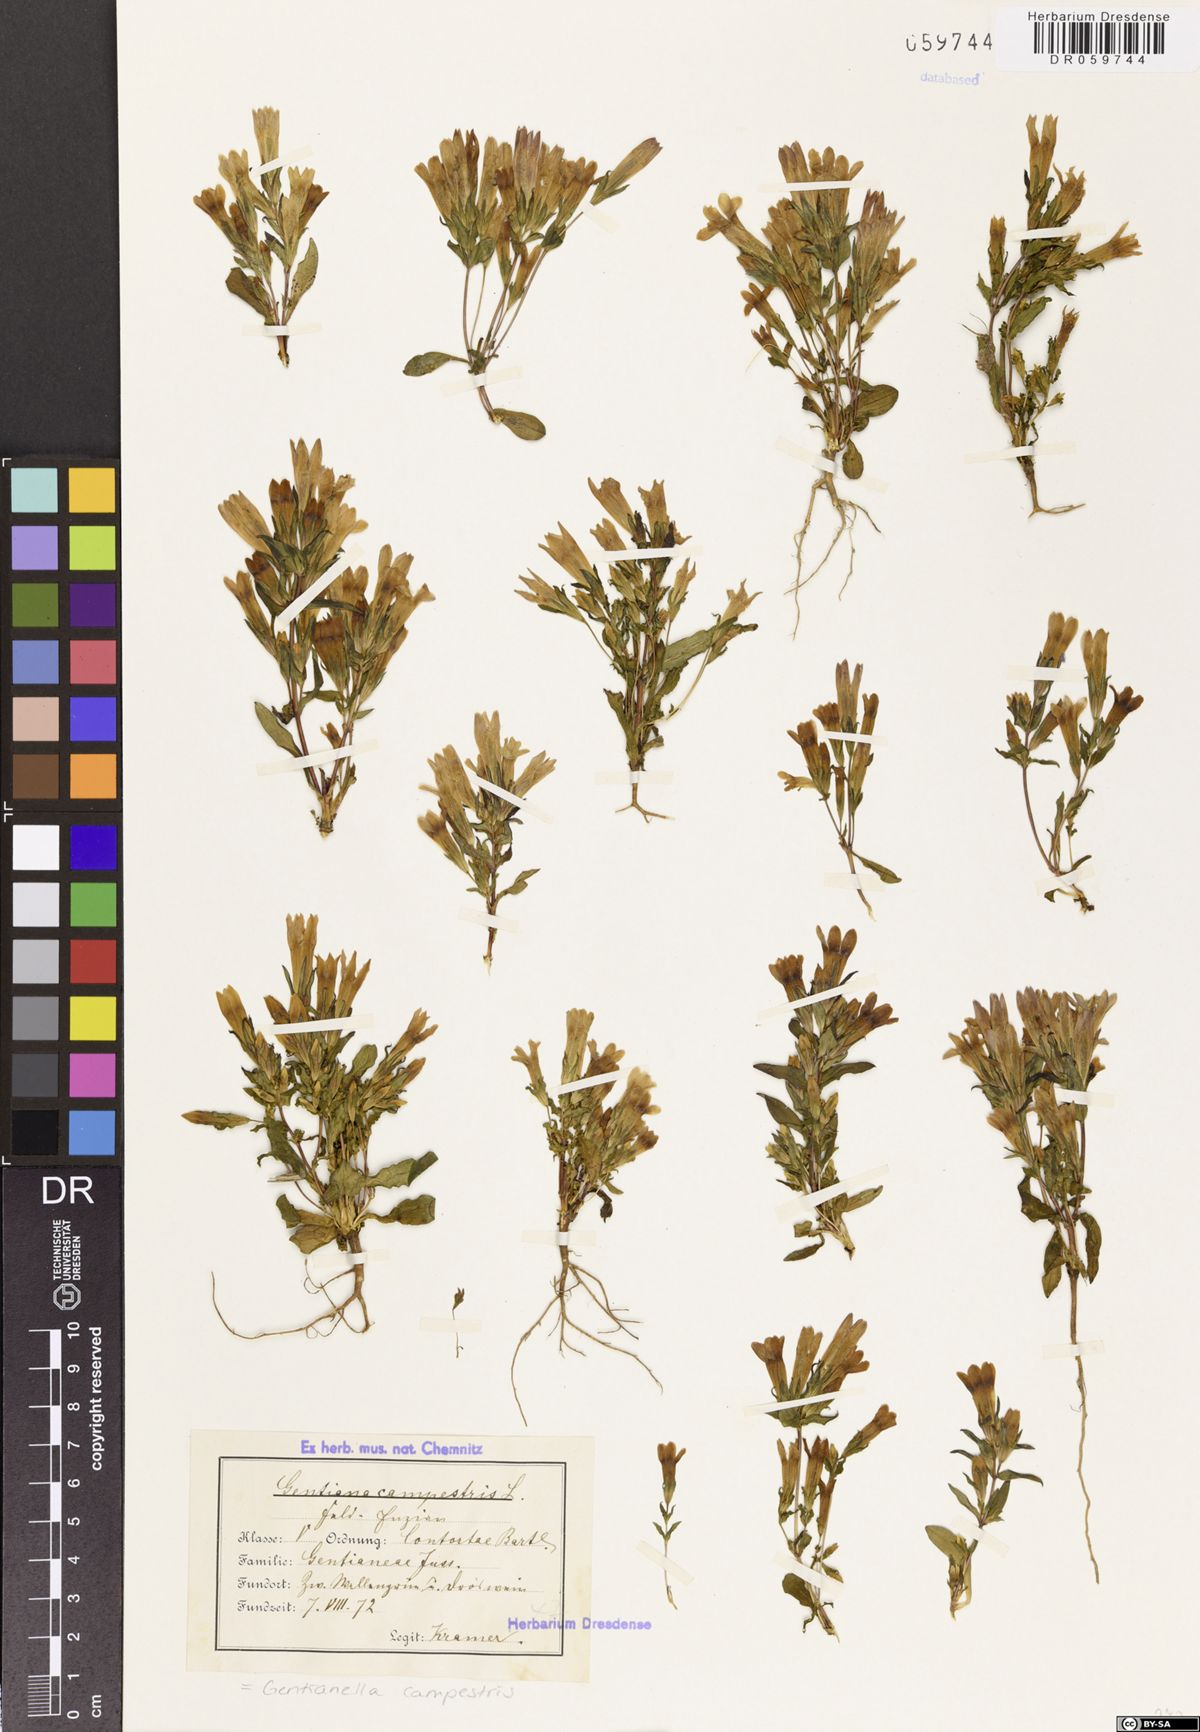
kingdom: Plantae
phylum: Tracheophyta
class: Magnoliopsida
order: Gentianales
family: Gentianaceae
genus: Gentianella
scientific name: Gentianella campestris
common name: Field gentian
